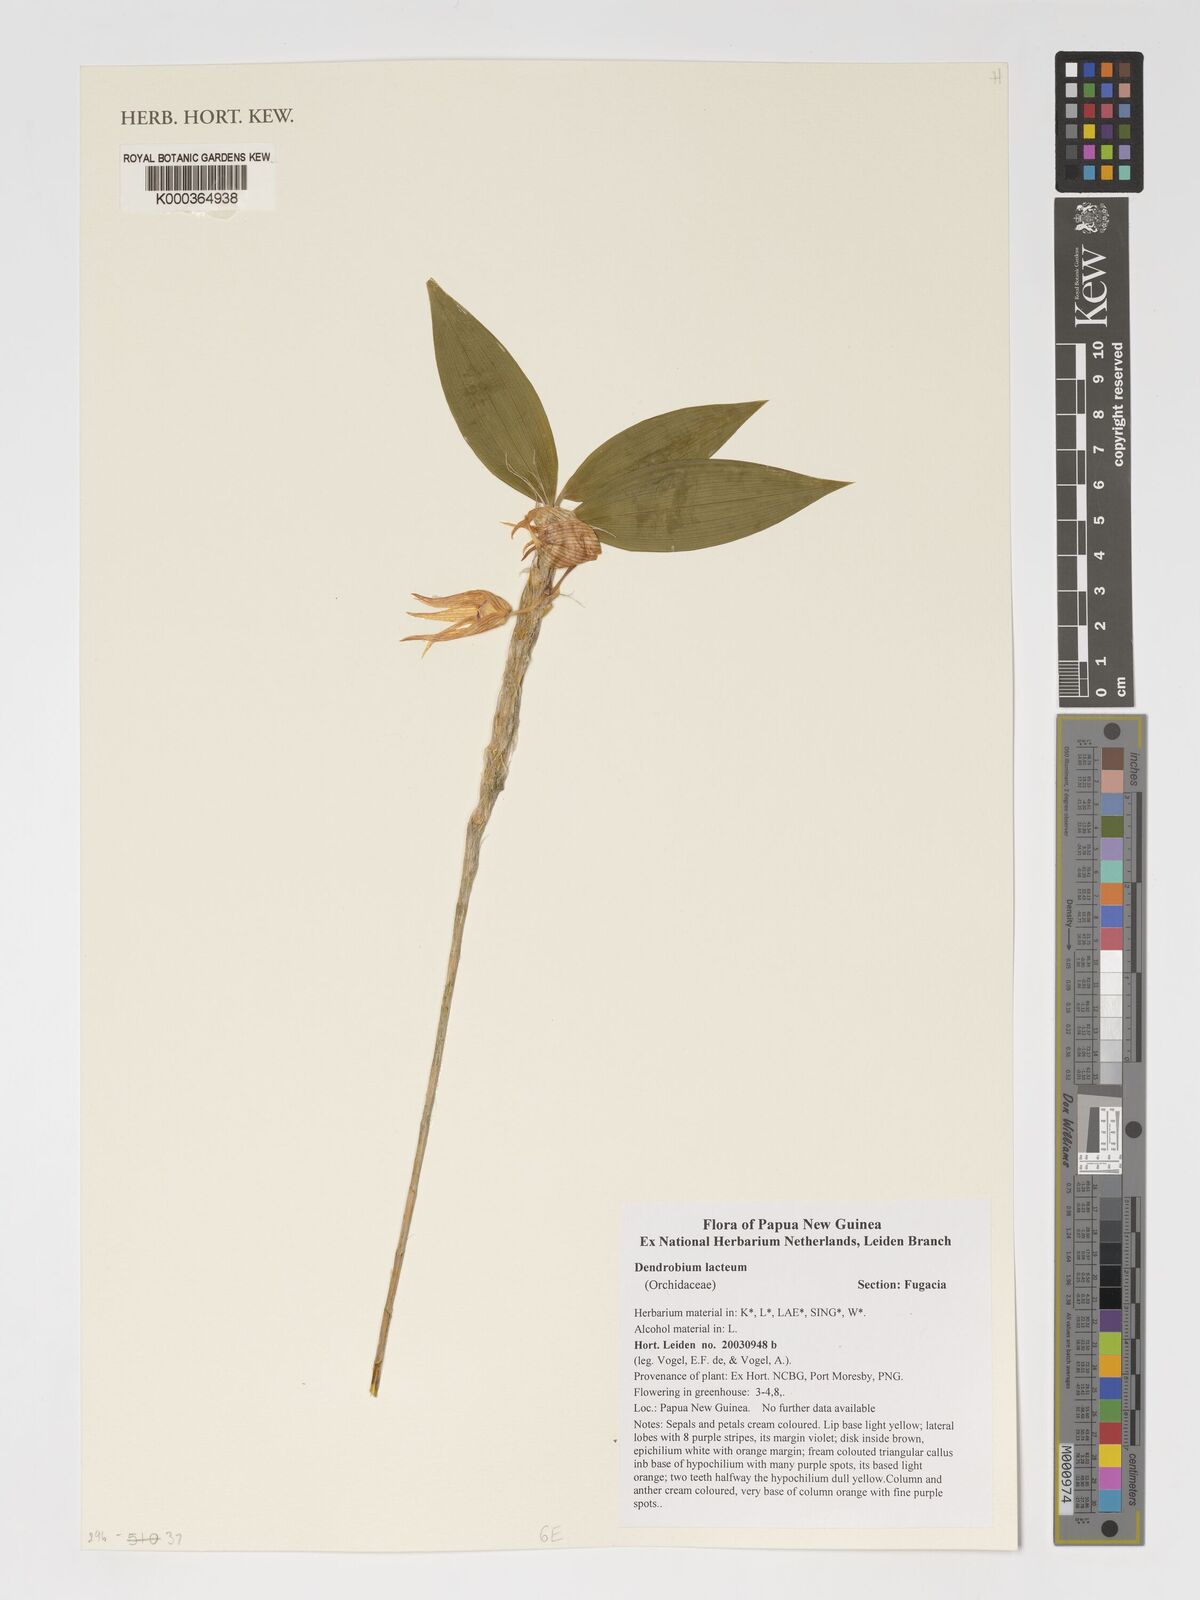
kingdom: Plantae
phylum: Tracheophyta
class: Liliopsida
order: Asparagales
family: Orchidaceae
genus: Dendrobium
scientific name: Dendrobium lacteum
